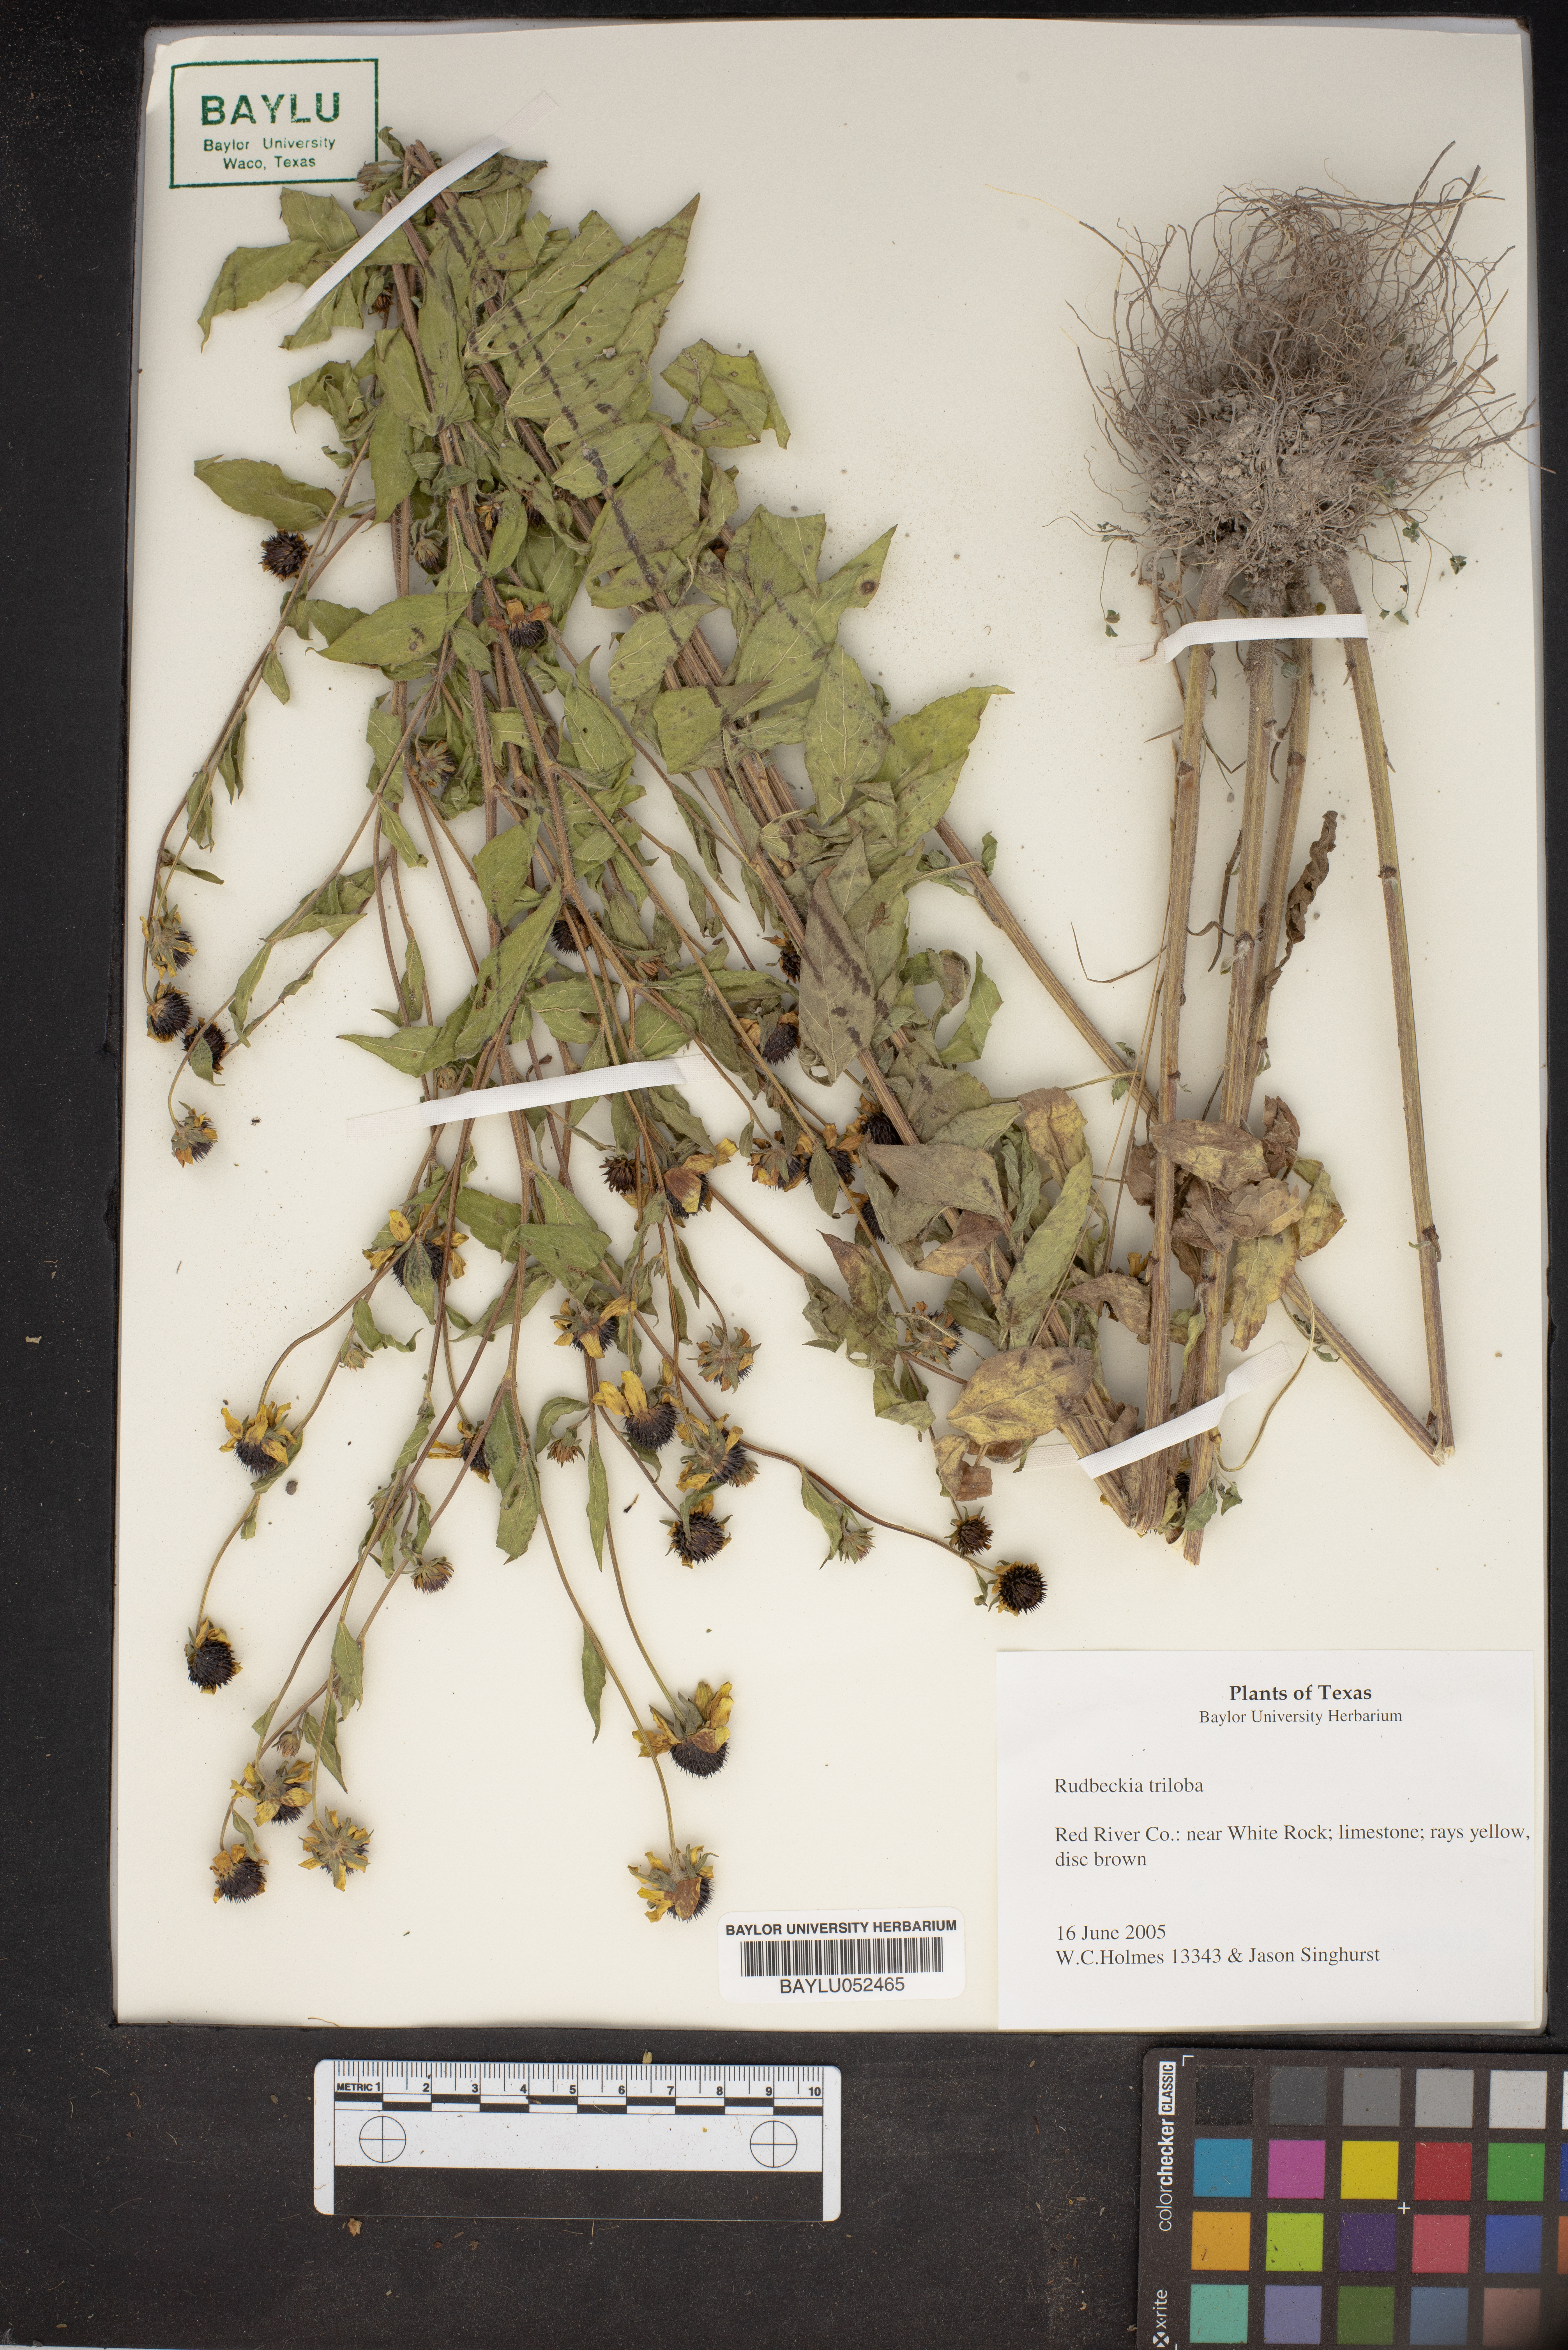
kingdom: Plantae
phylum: Tracheophyta
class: Magnoliopsida
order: Asterales
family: Asteraceae
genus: Rudbeckia
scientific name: Rudbeckia triloba
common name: Thin-leaved coneflower
